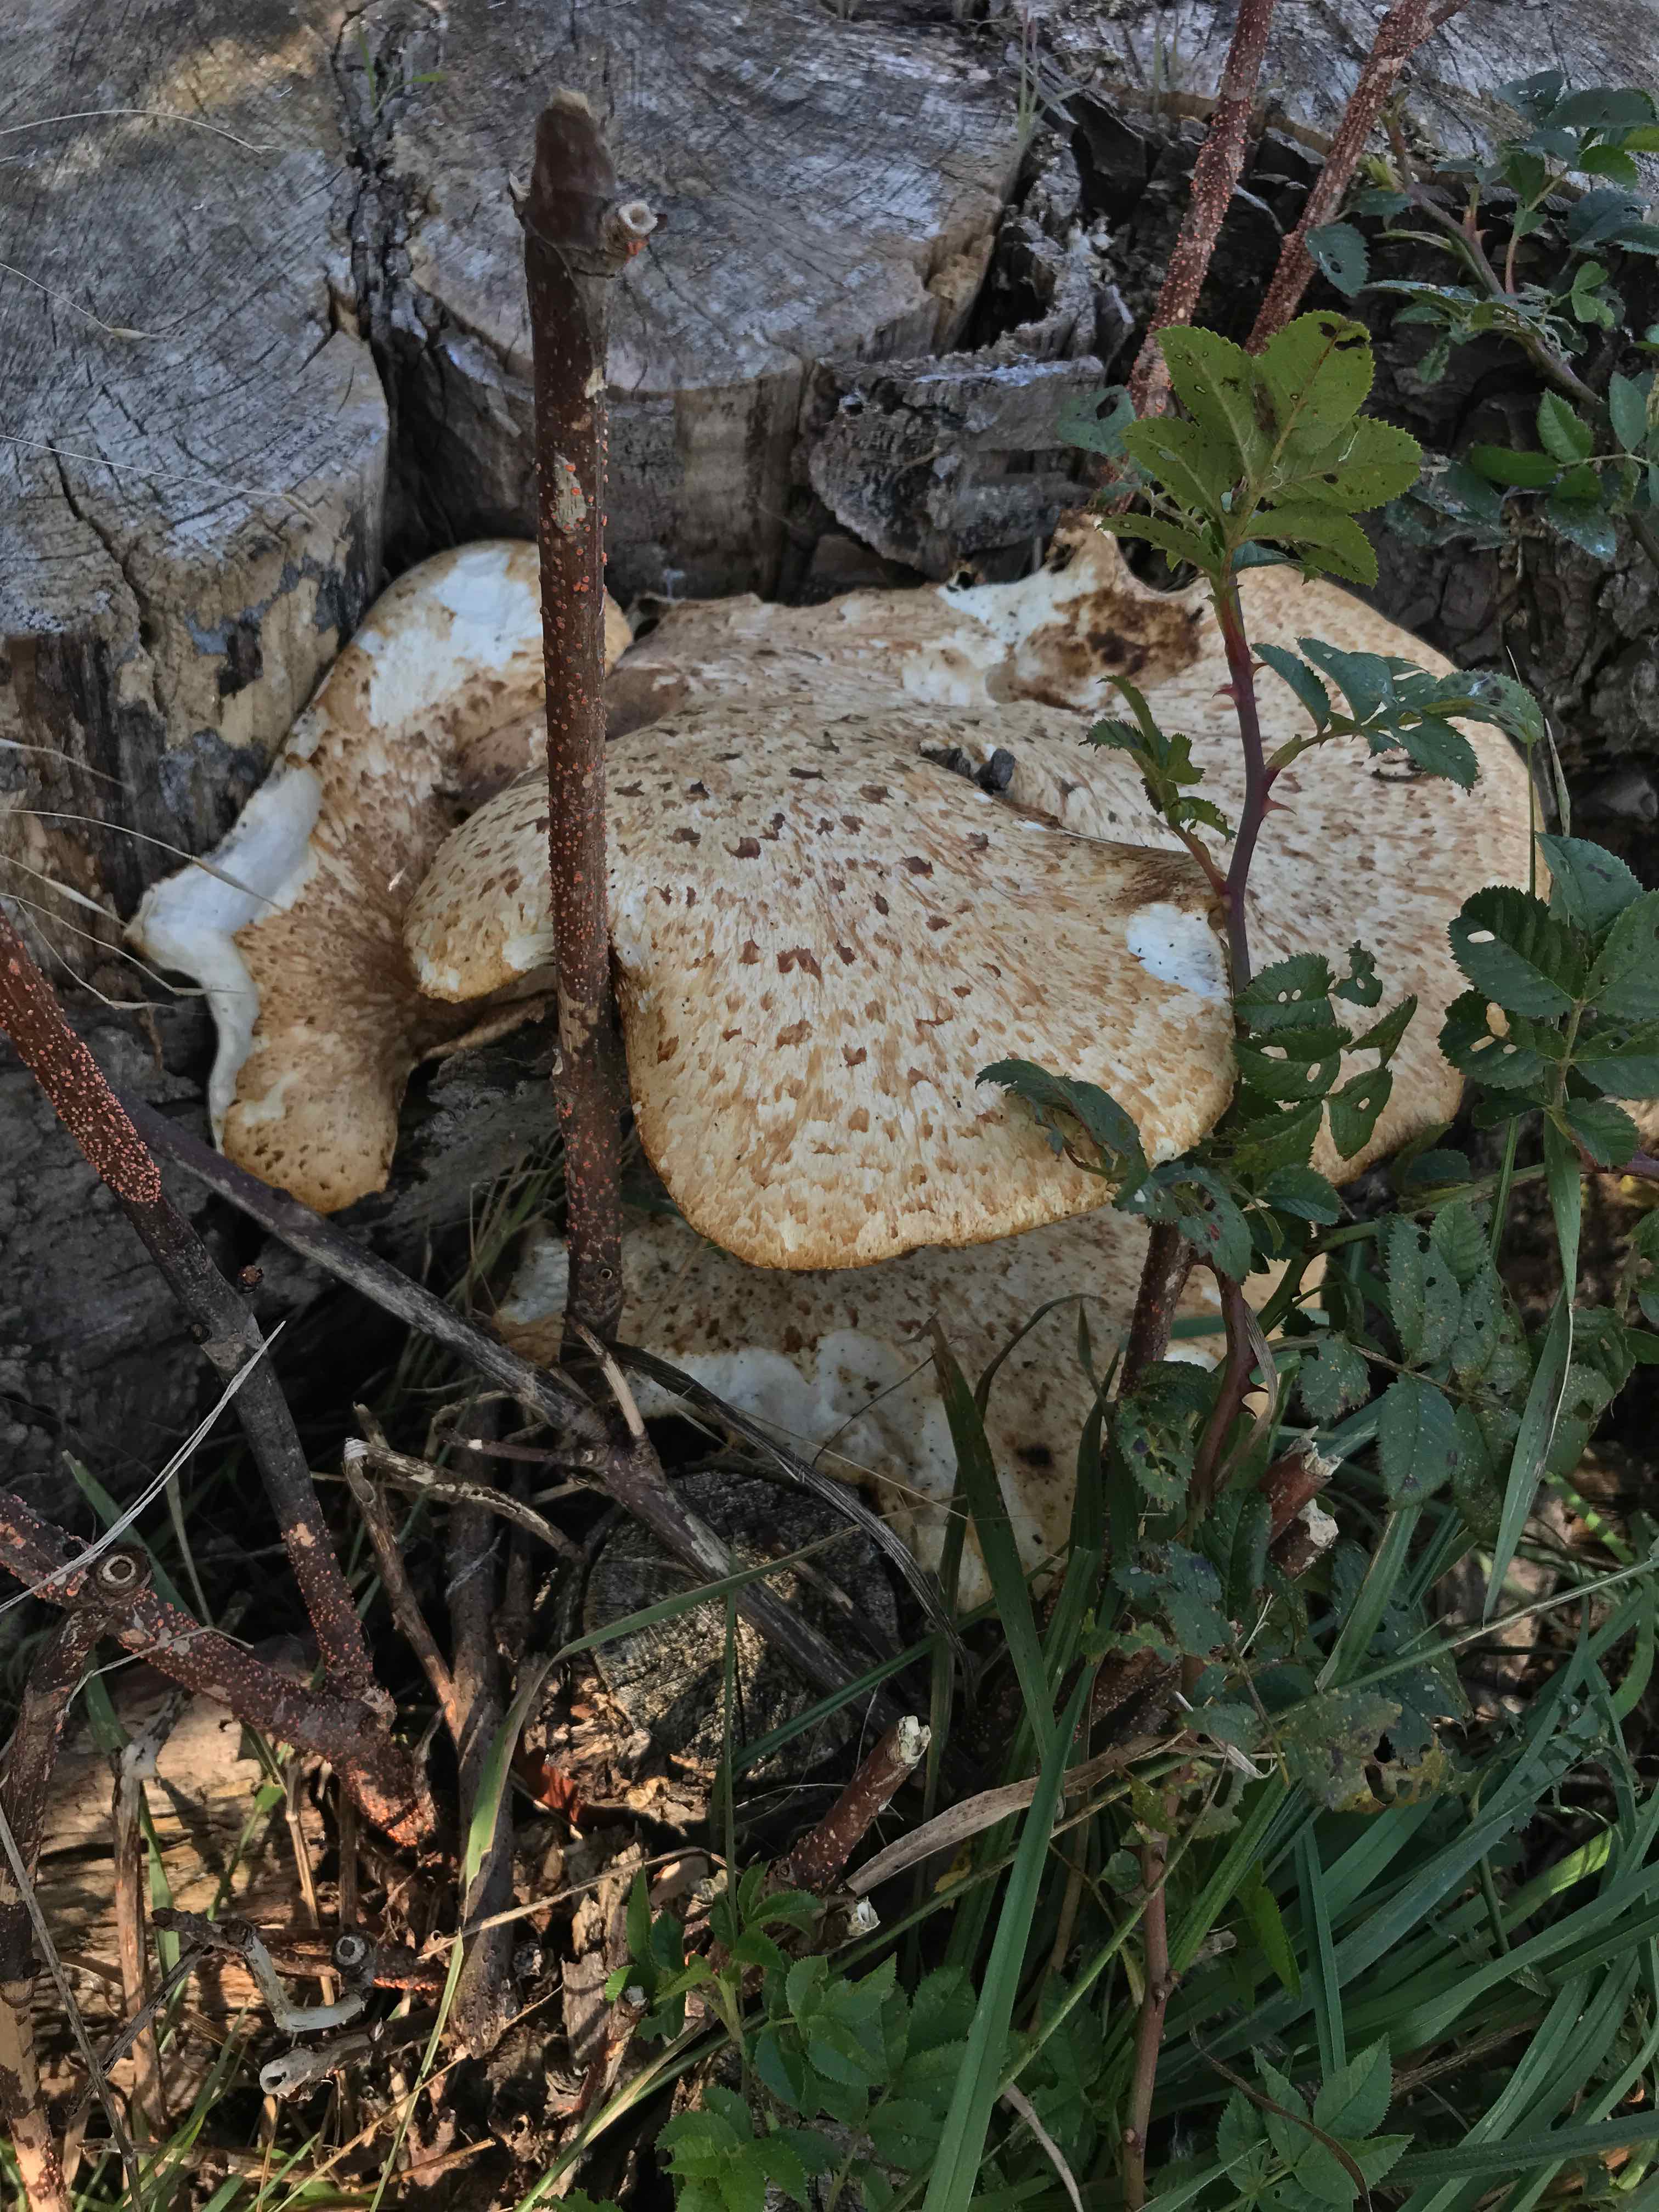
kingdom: Fungi
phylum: Basidiomycota
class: Agaricomycetes
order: Polyporales
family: Polyporaceae
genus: Cerioporus
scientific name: Cerioporus squamosus
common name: skællet stilkporesvamp
